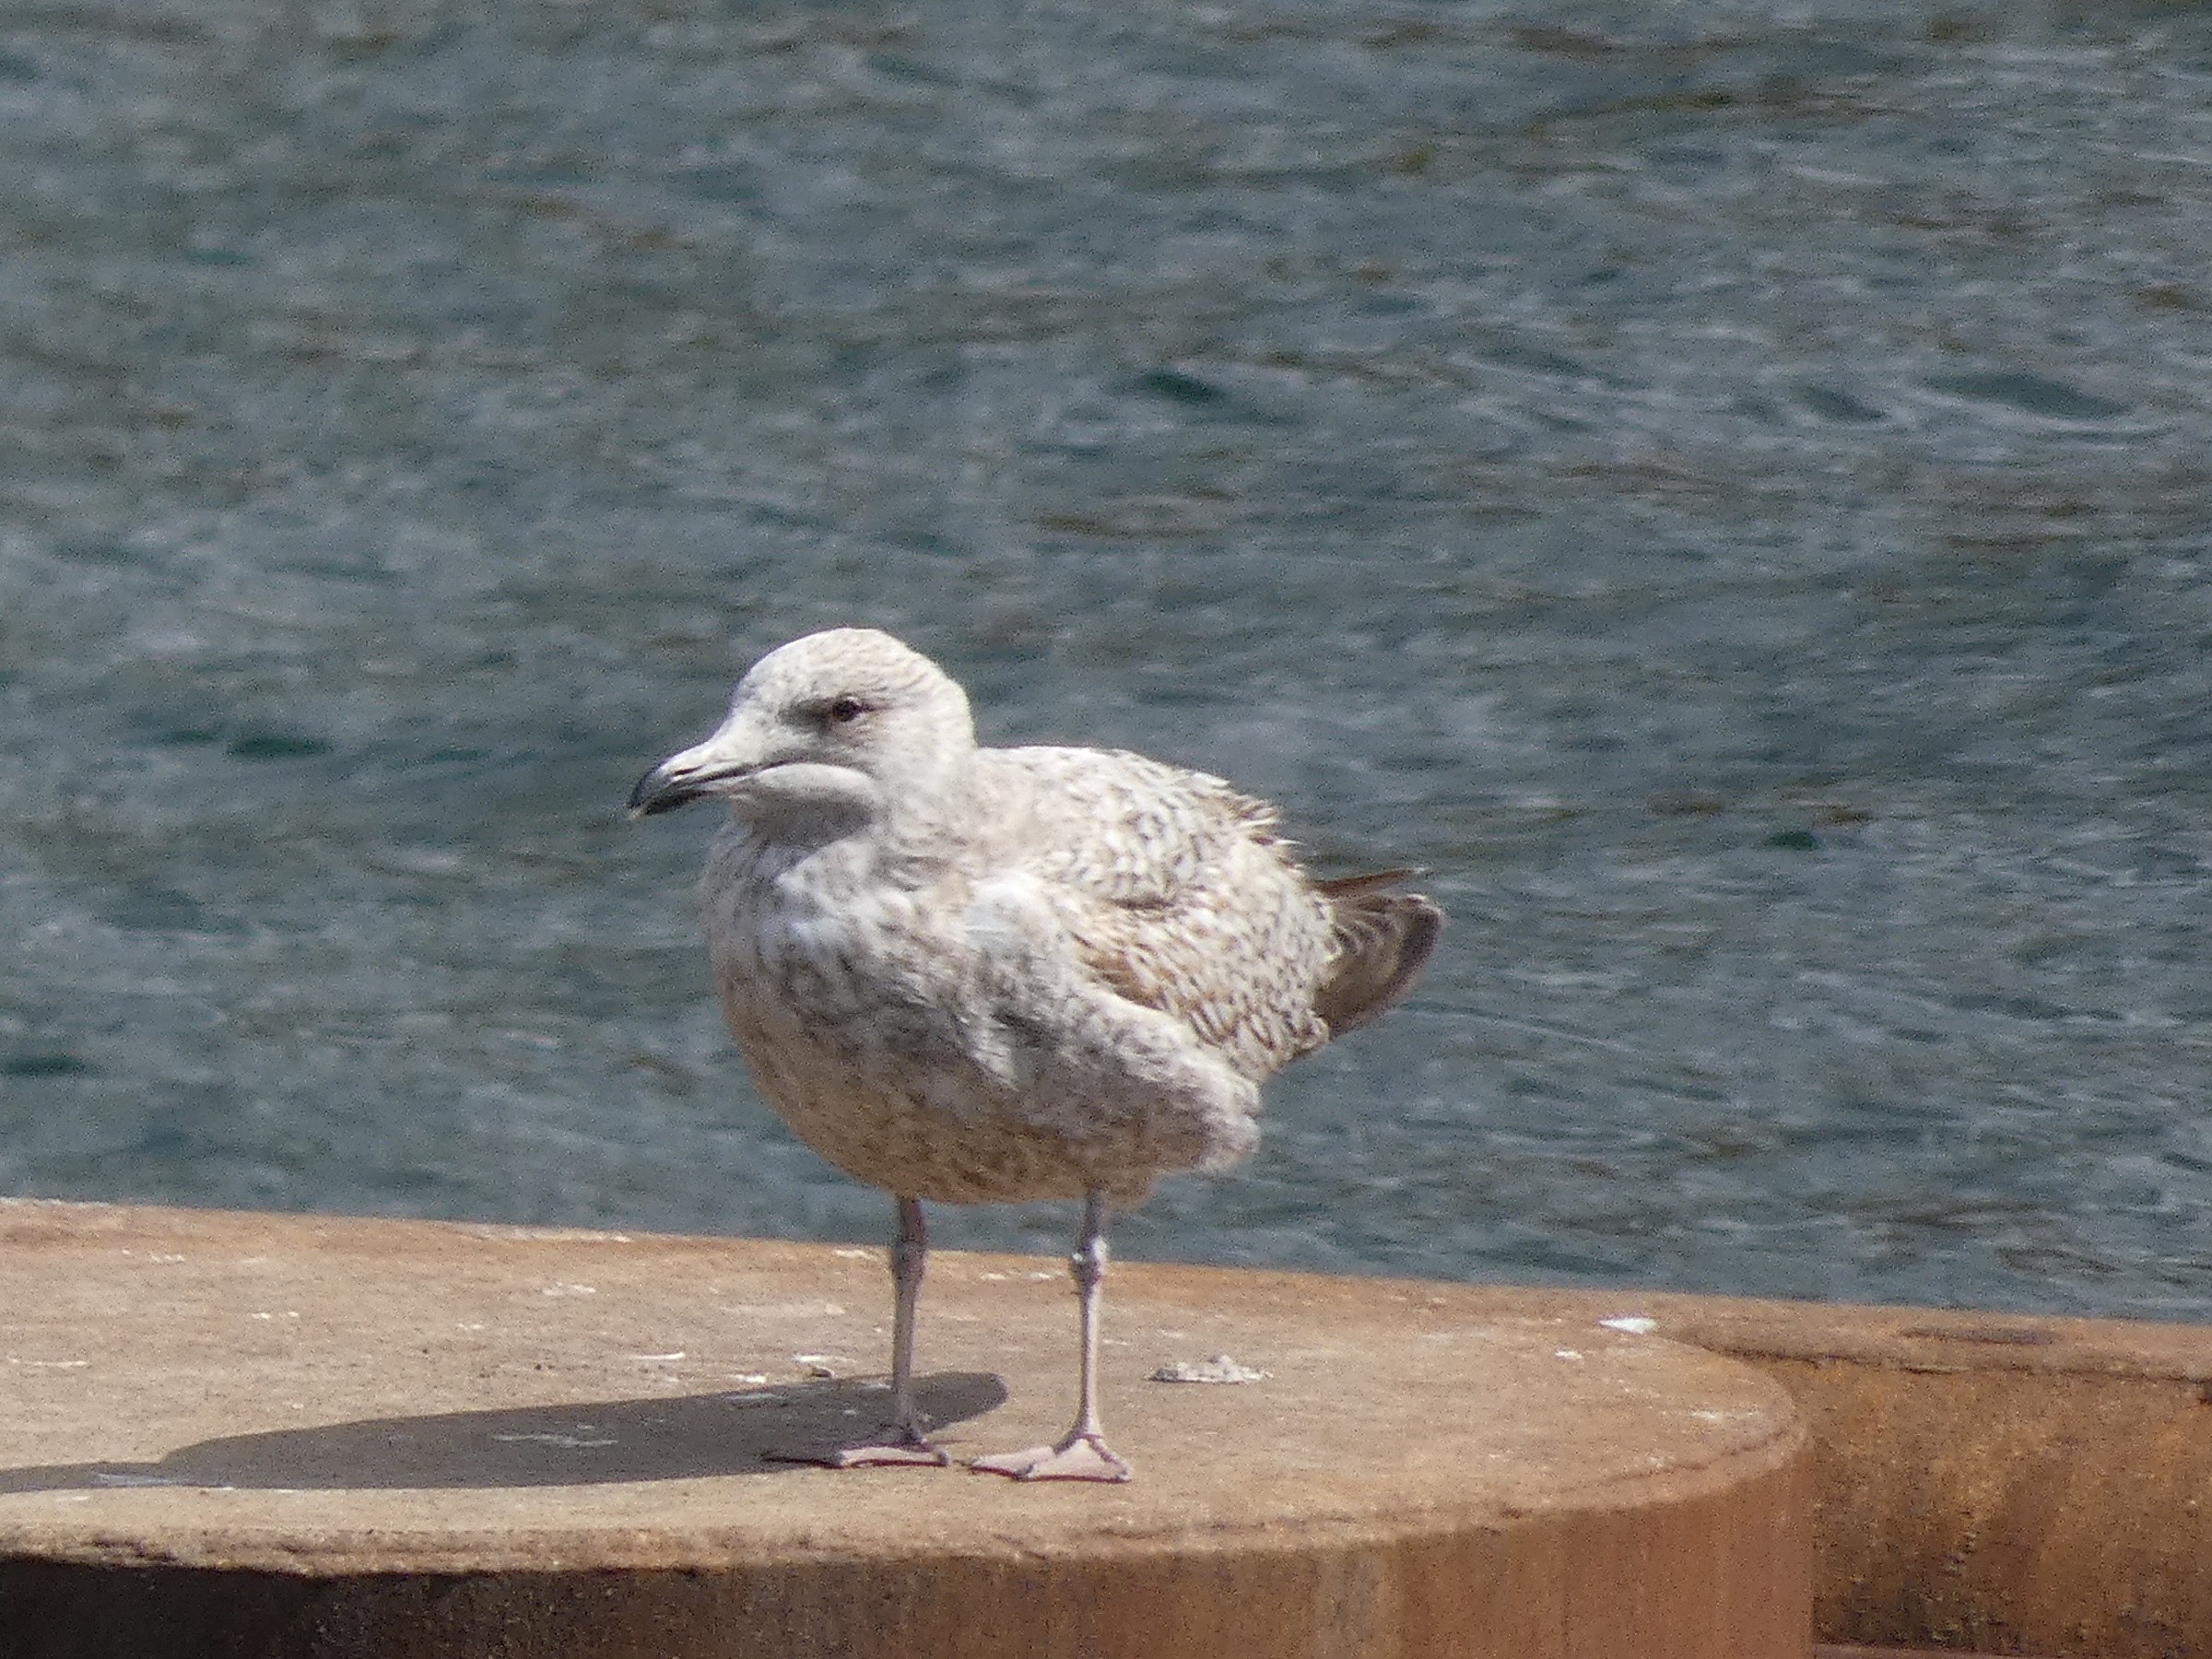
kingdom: Animalia
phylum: Chordata
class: Aves
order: Charadriiformes
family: Laridae
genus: Larus
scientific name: Larus argentatus
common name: Sølvmåge
